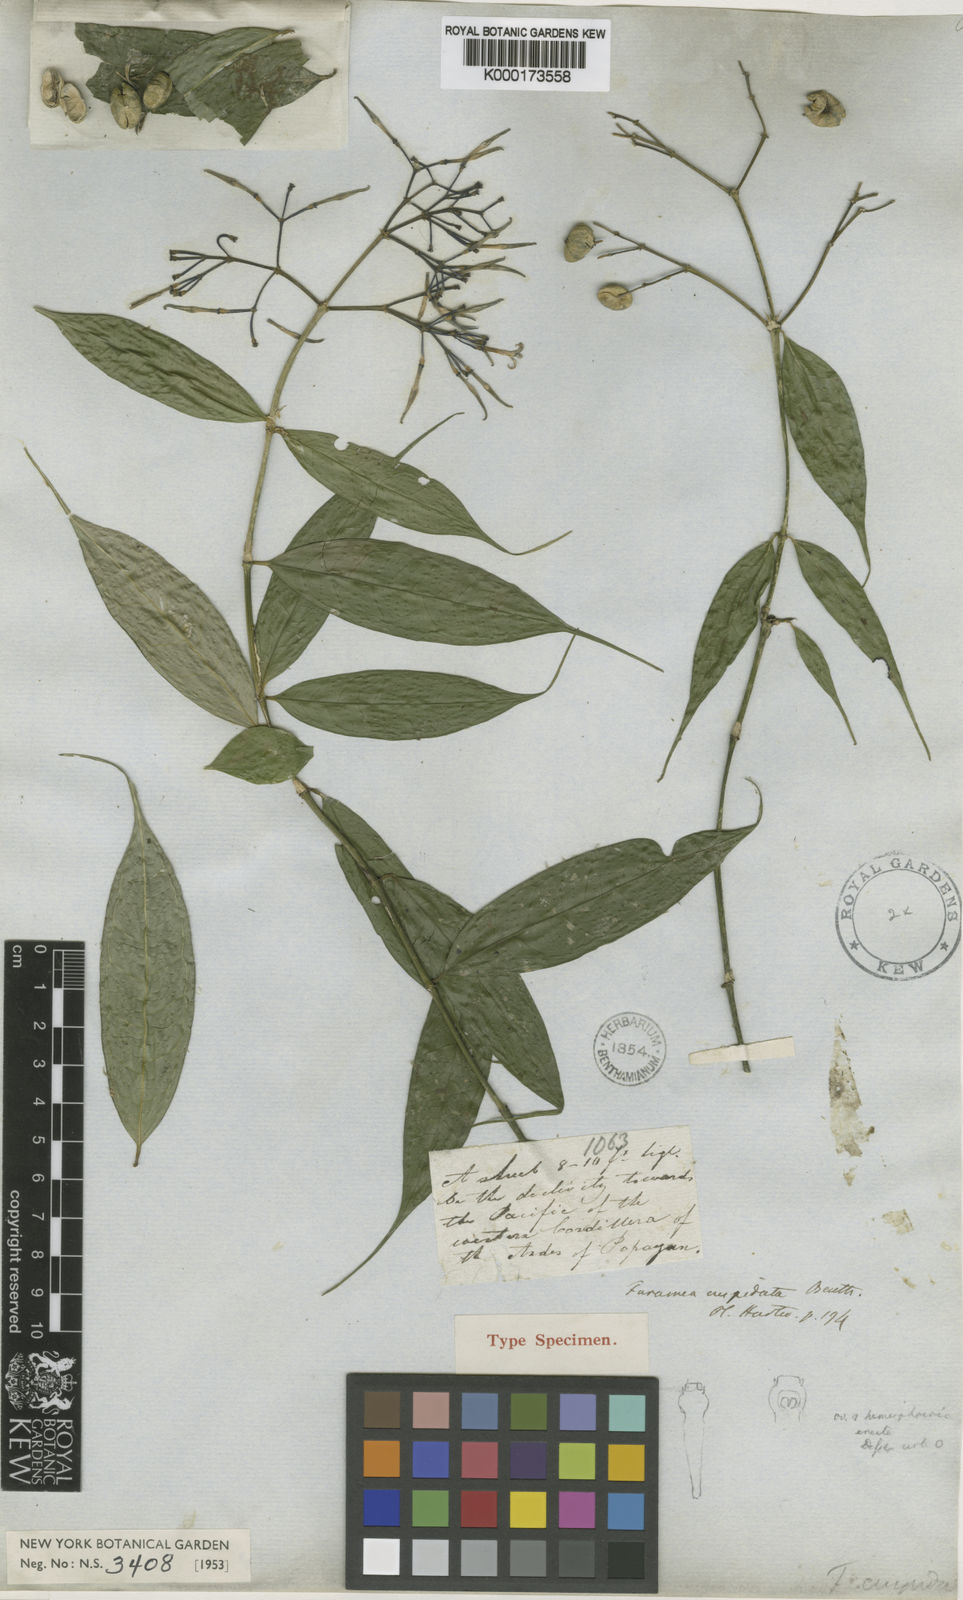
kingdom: Plantae
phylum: Tracheophyta
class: Magnoliopsida
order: Gentianales
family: Rubiaceae
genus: Faramea
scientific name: Faramea cuspidata
